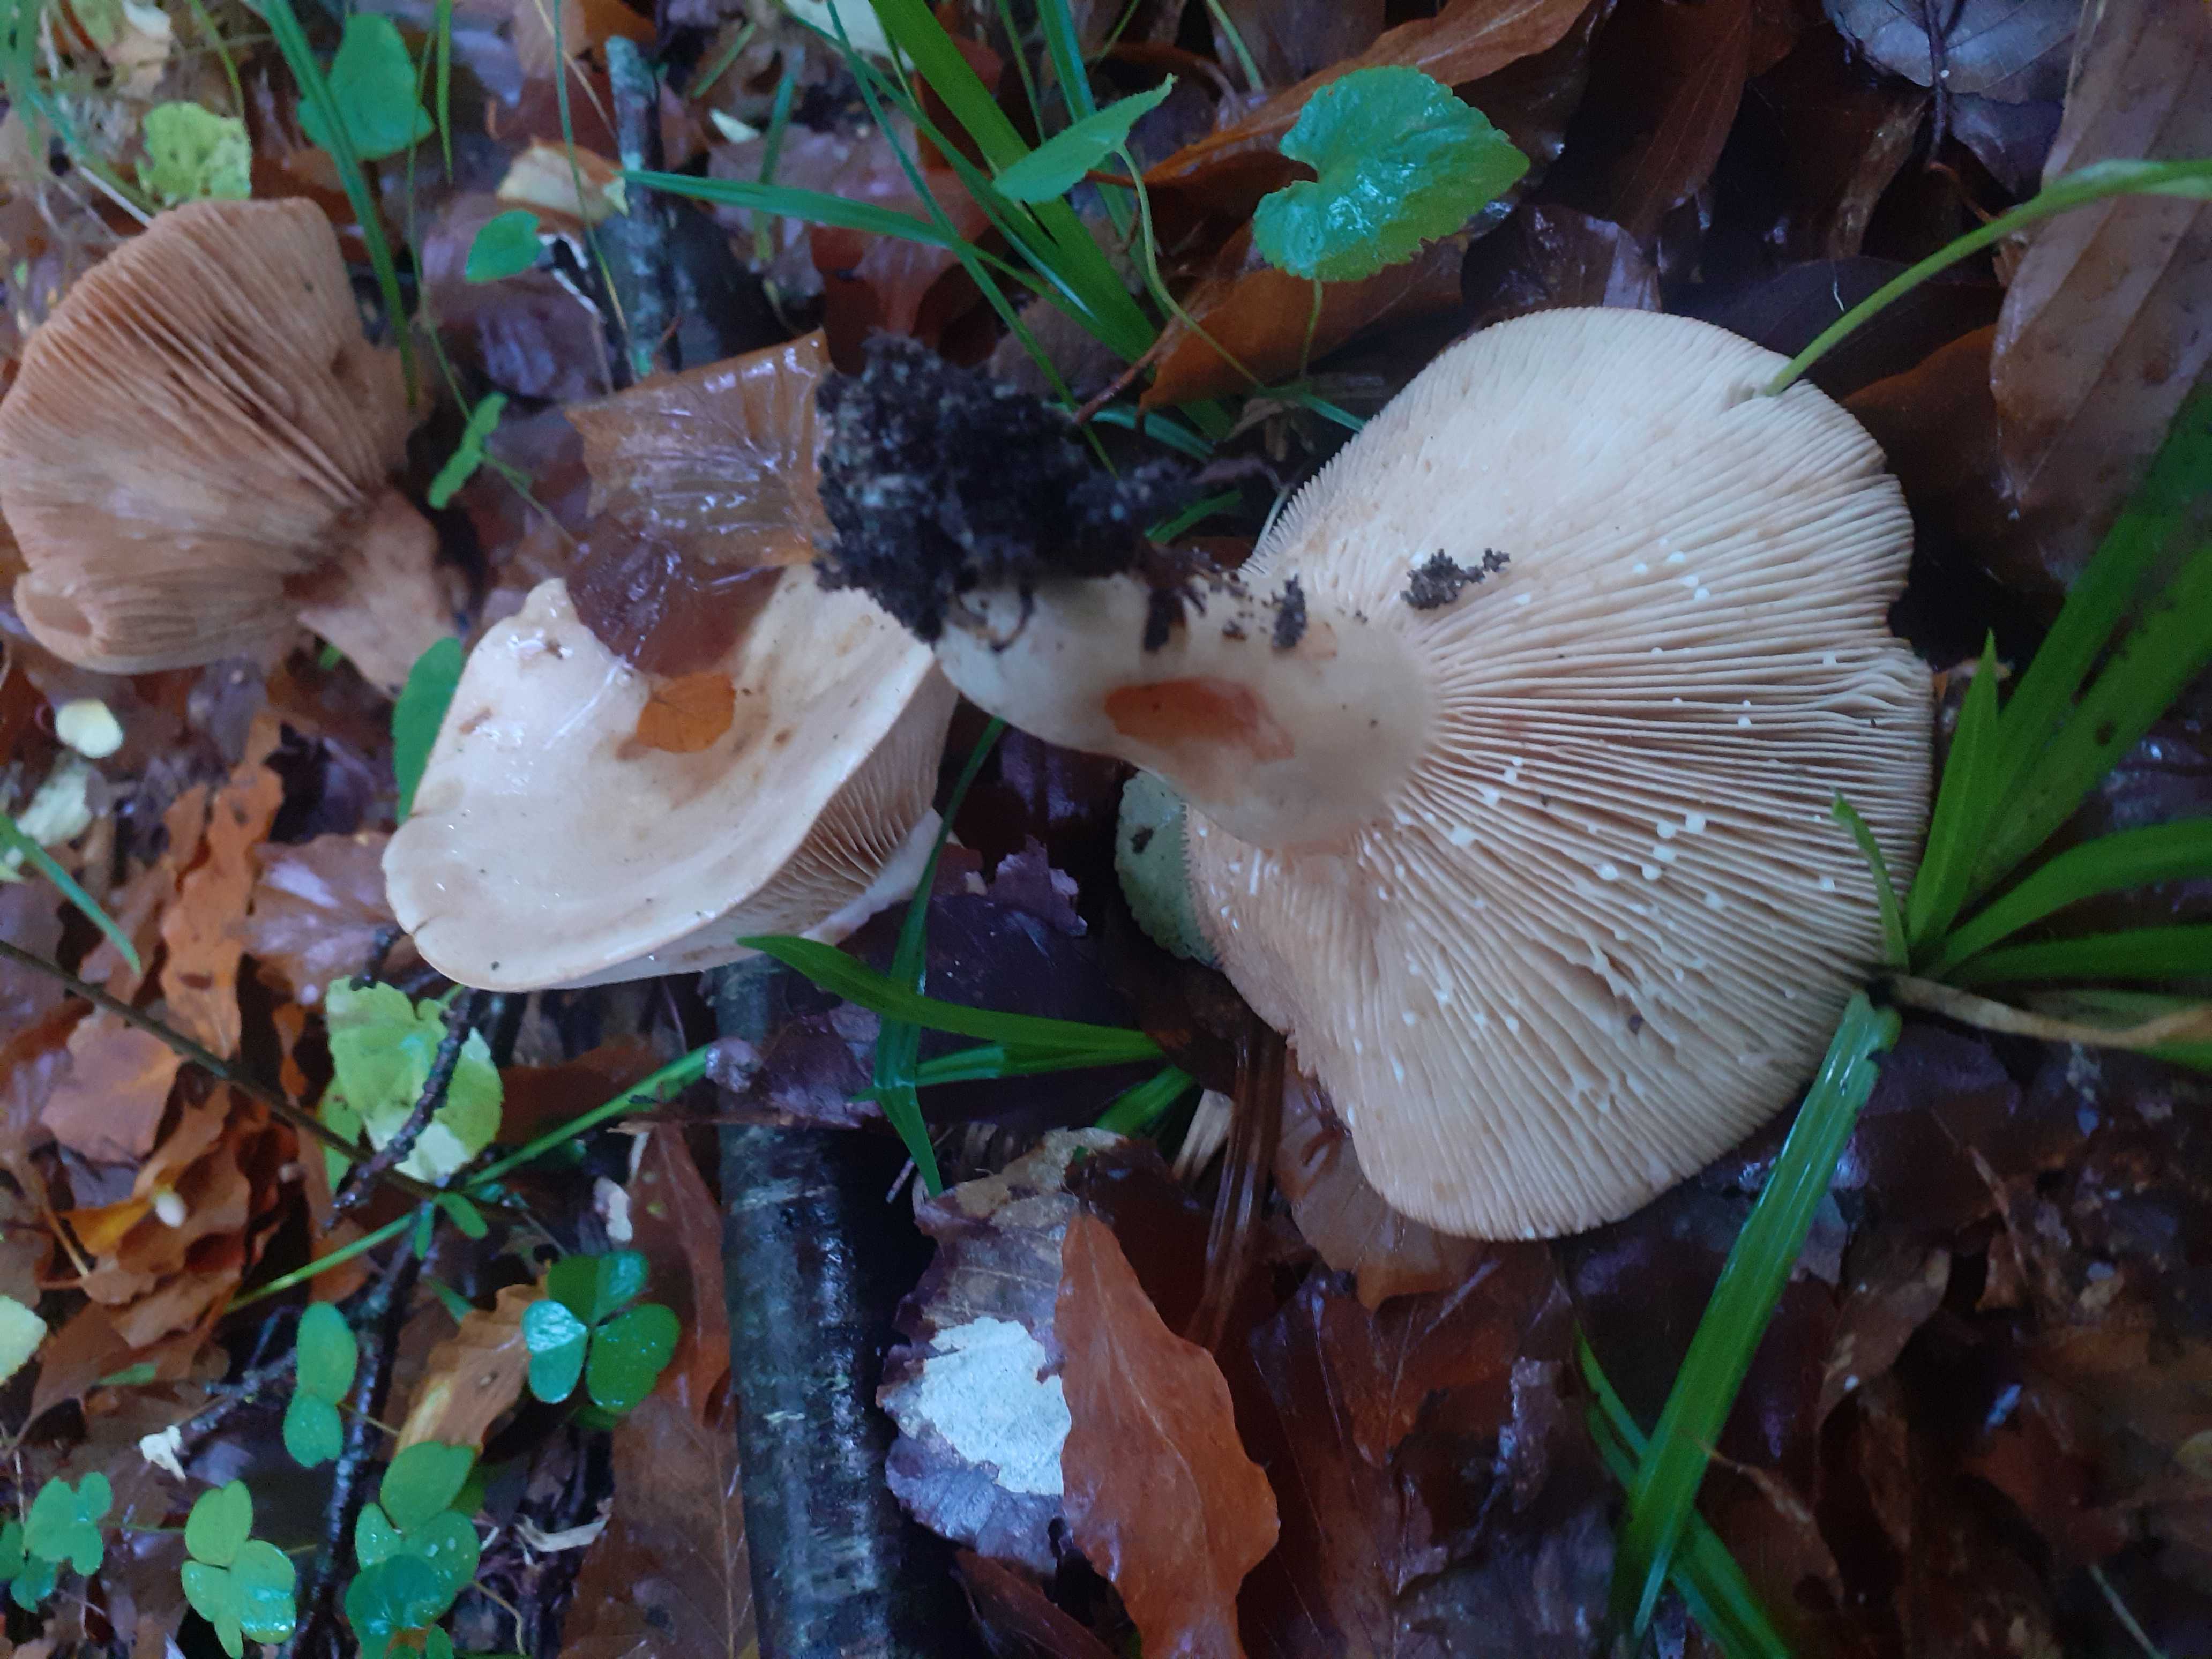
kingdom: Fungi
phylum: Basidiomycota
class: Agaricomycetes
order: Russulales
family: Russulaceae
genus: Lactarius
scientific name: Lactarius pallidus
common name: bleg mælkehat
